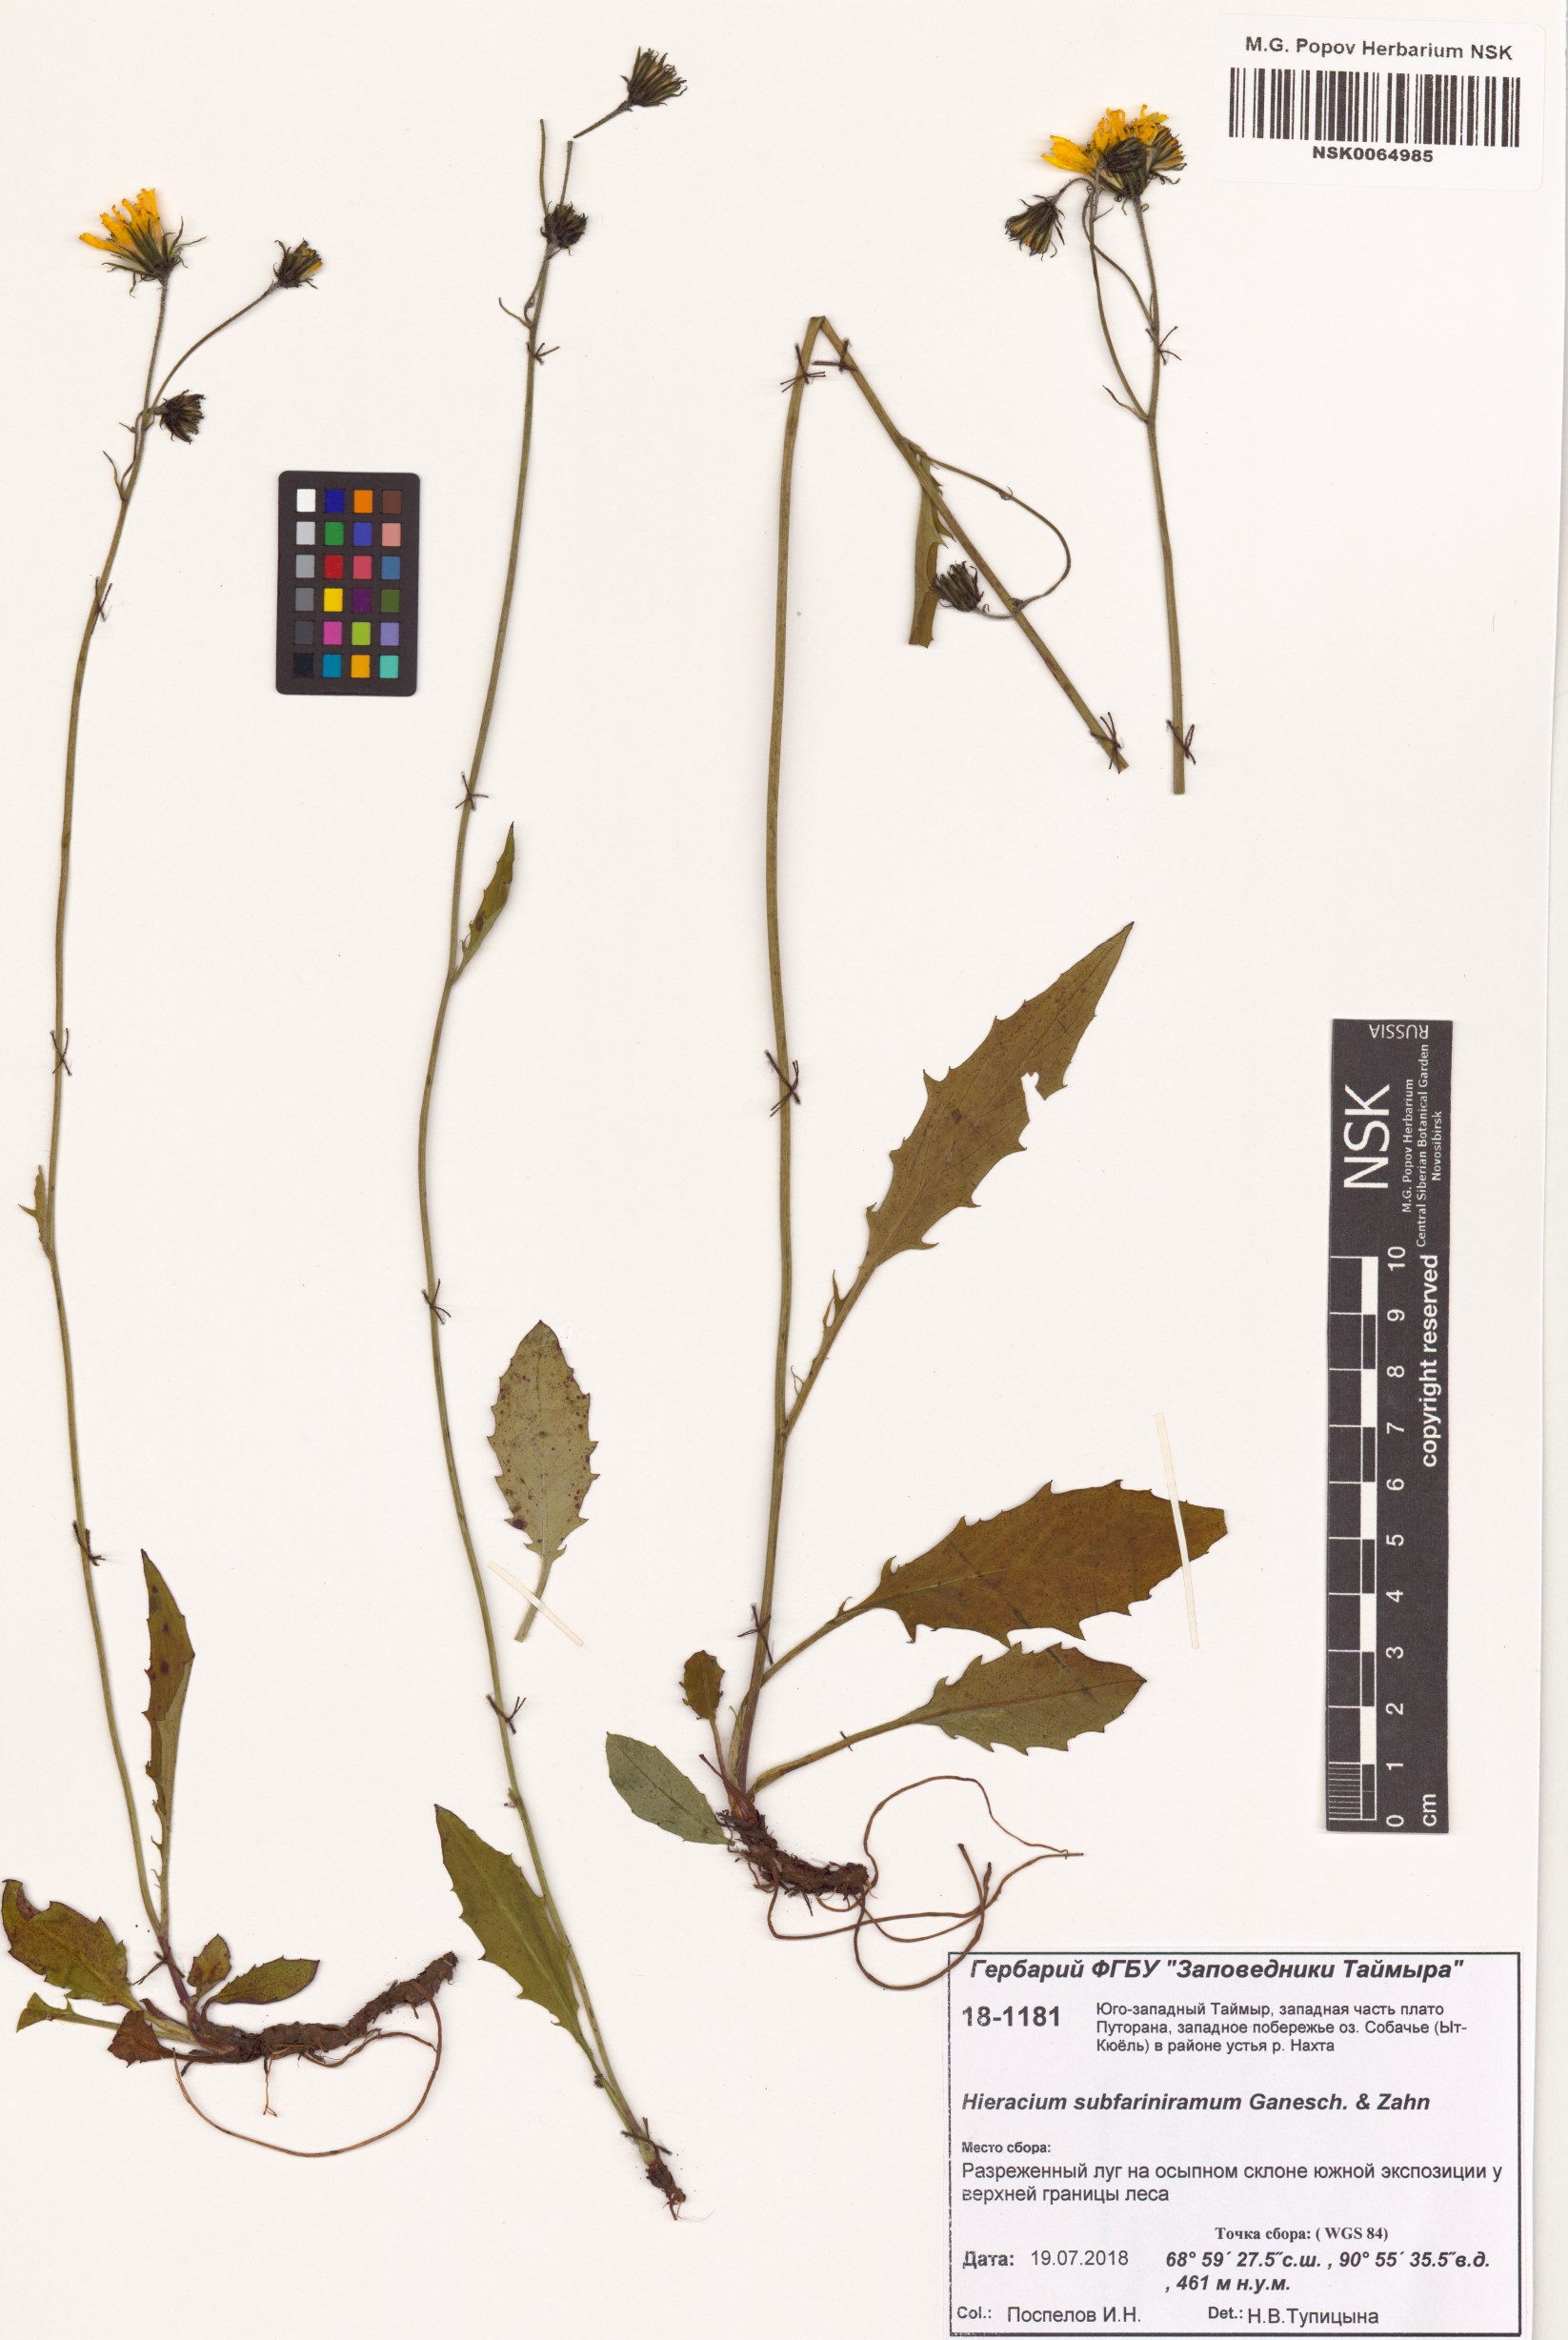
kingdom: Plantae
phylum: Tracheophyta
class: Magnoliopsida
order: Asterales
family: Asteraceae
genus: Hieracium
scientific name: Hieracium subfariniramum
